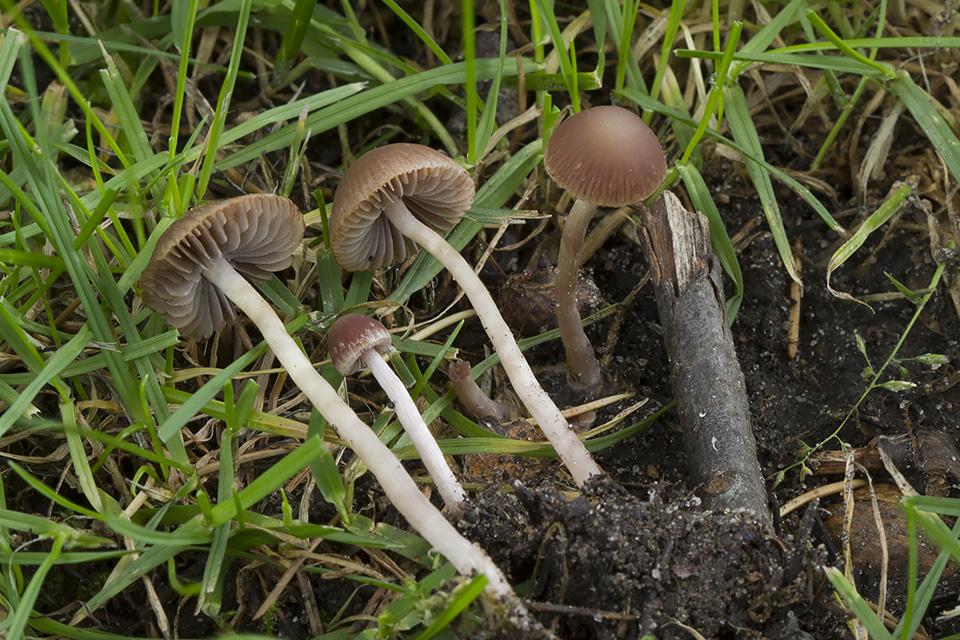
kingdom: Fungi
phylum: Basidiomycota
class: Agaricomycetes
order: Agaricales
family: Psathyrellaceae
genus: Psathyrella
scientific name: Psathyrella lutensis
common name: hjulspor-mørkhat
